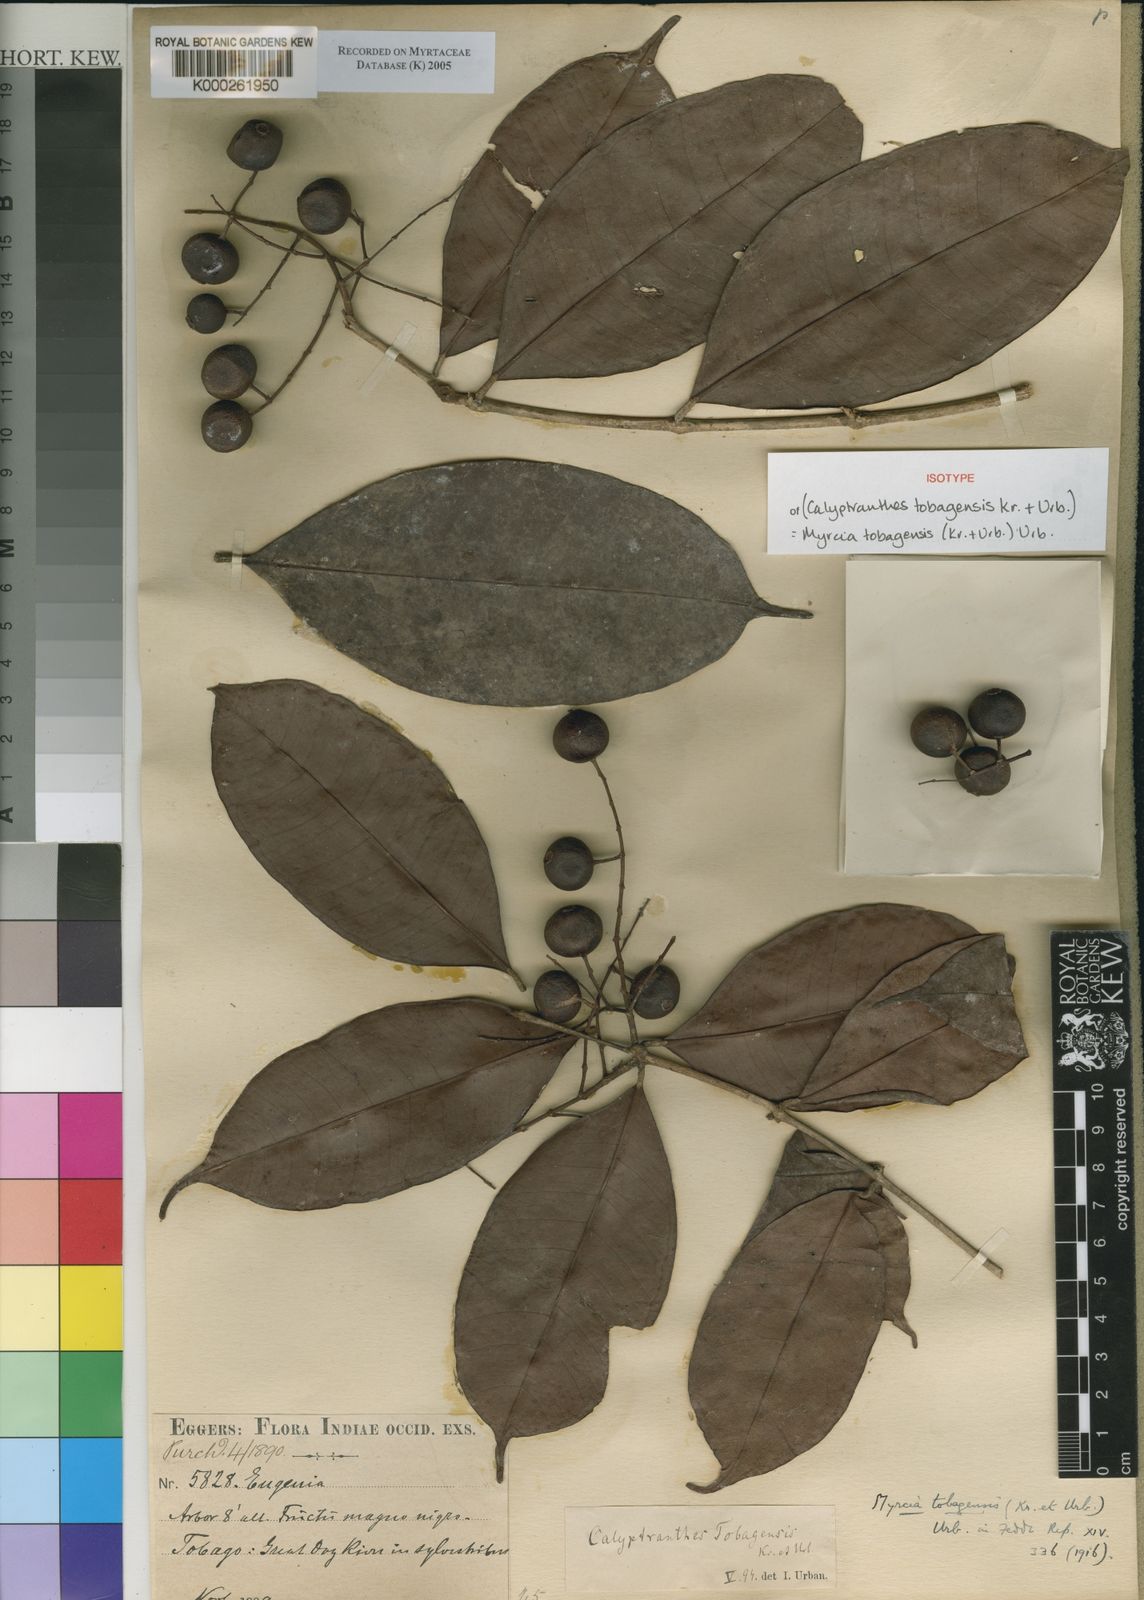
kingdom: Plantae
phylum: Tracheophyta
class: Magnoliopsida
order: Myrtales
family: Myrtaceae
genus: Myrcia
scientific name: Myrcia decorticans
